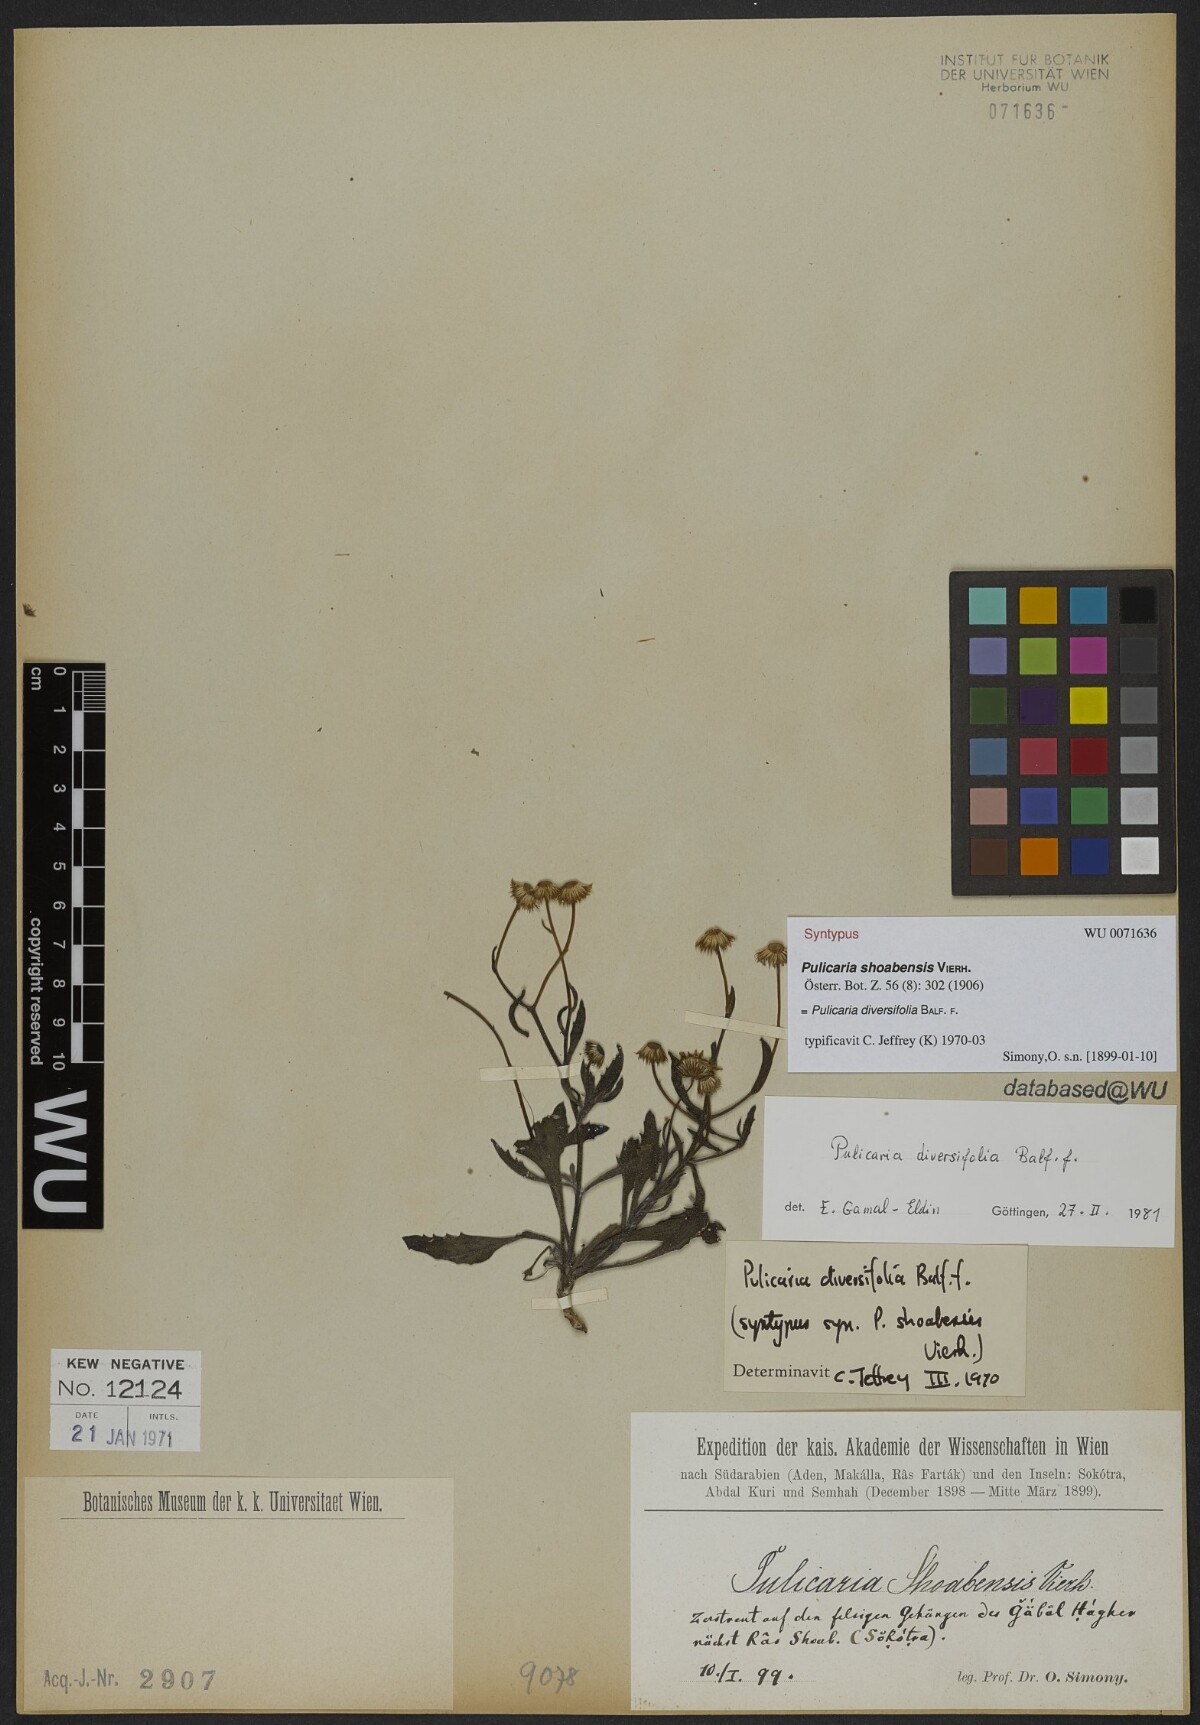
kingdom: Plantae
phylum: Tracheophyta
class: Magnoliopsida
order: Asterales
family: Asteraceae
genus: Pulicaria
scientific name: Pulicaria diversifolia
